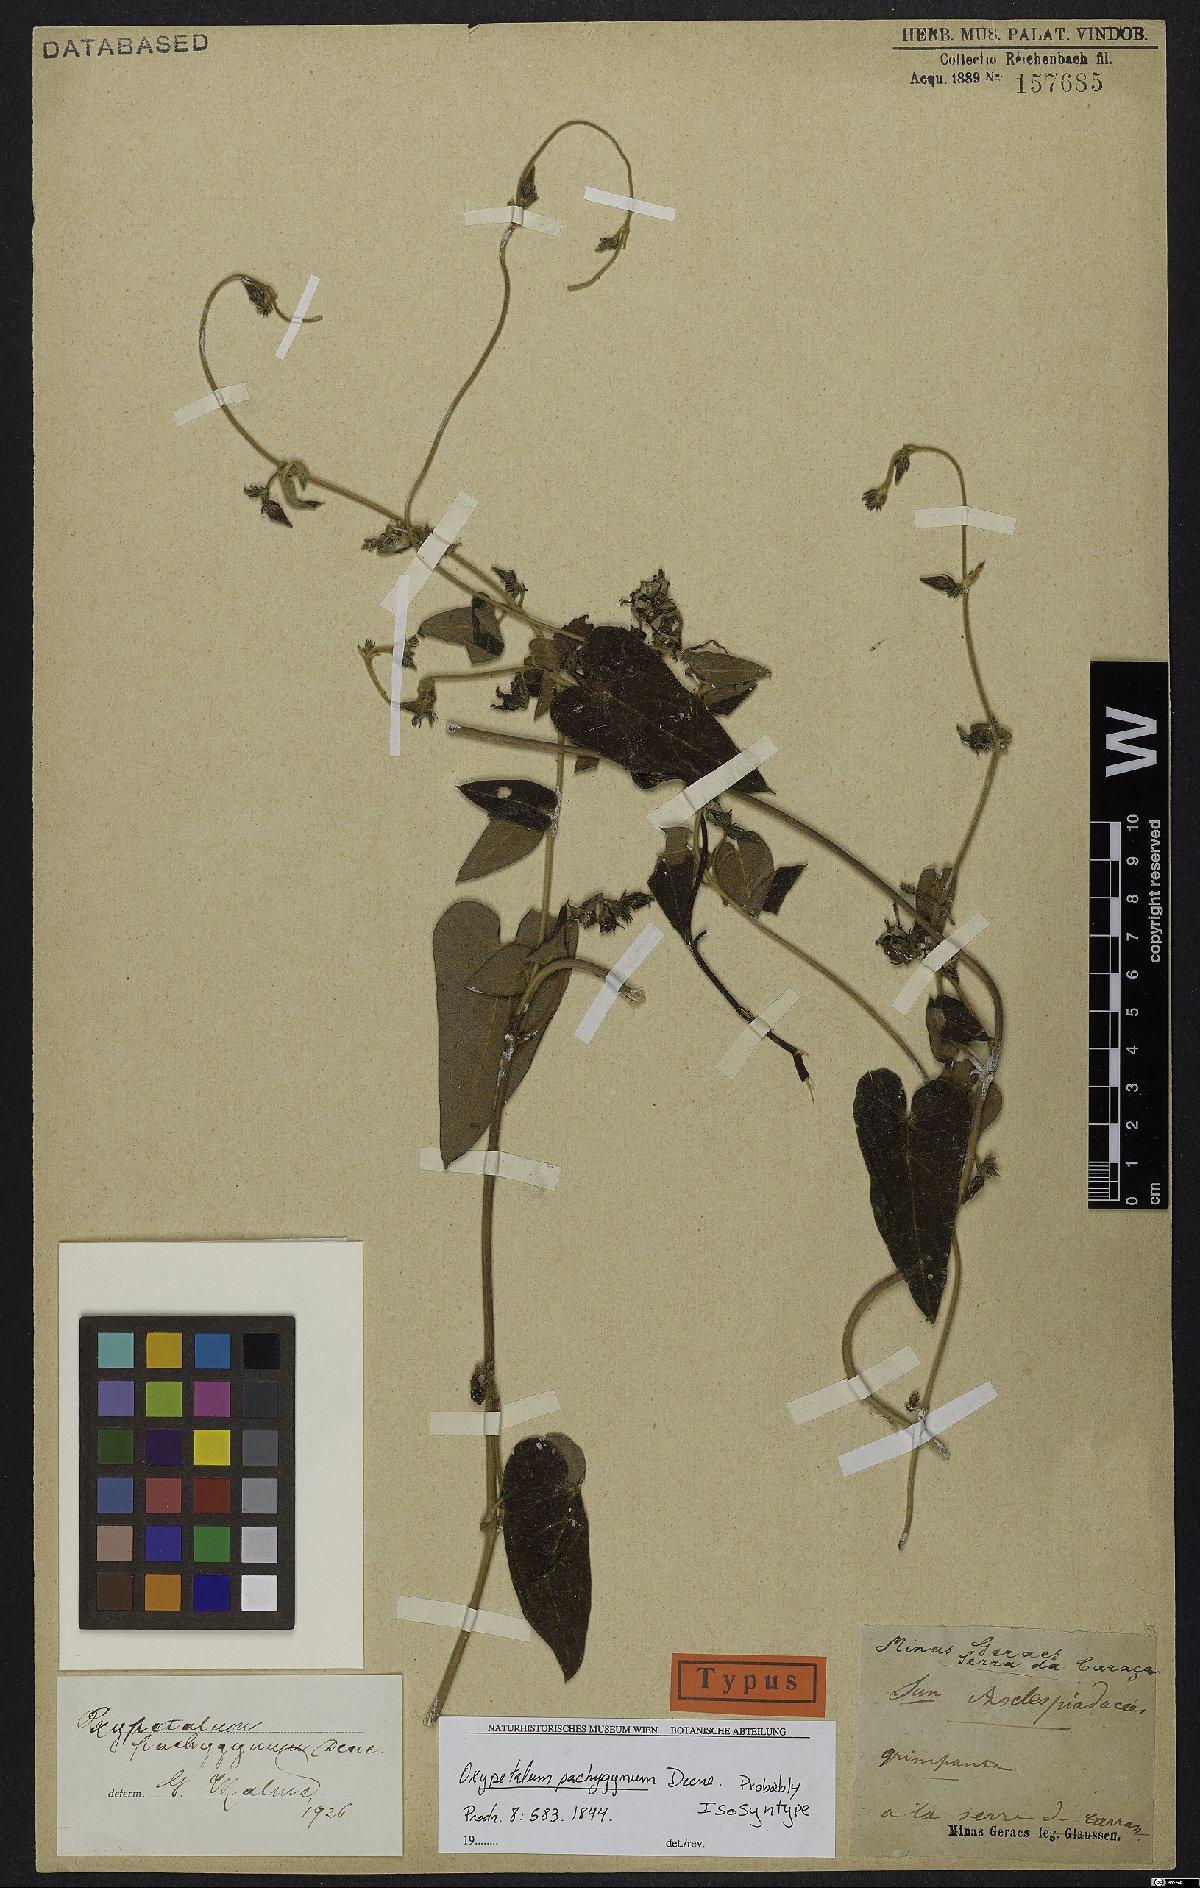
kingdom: Plantae
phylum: Tracheophyta
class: Magnoliopsida
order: Gentianales
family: Apocynaceae
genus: Oxypetalum
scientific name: Oxypetalum pachygynum
